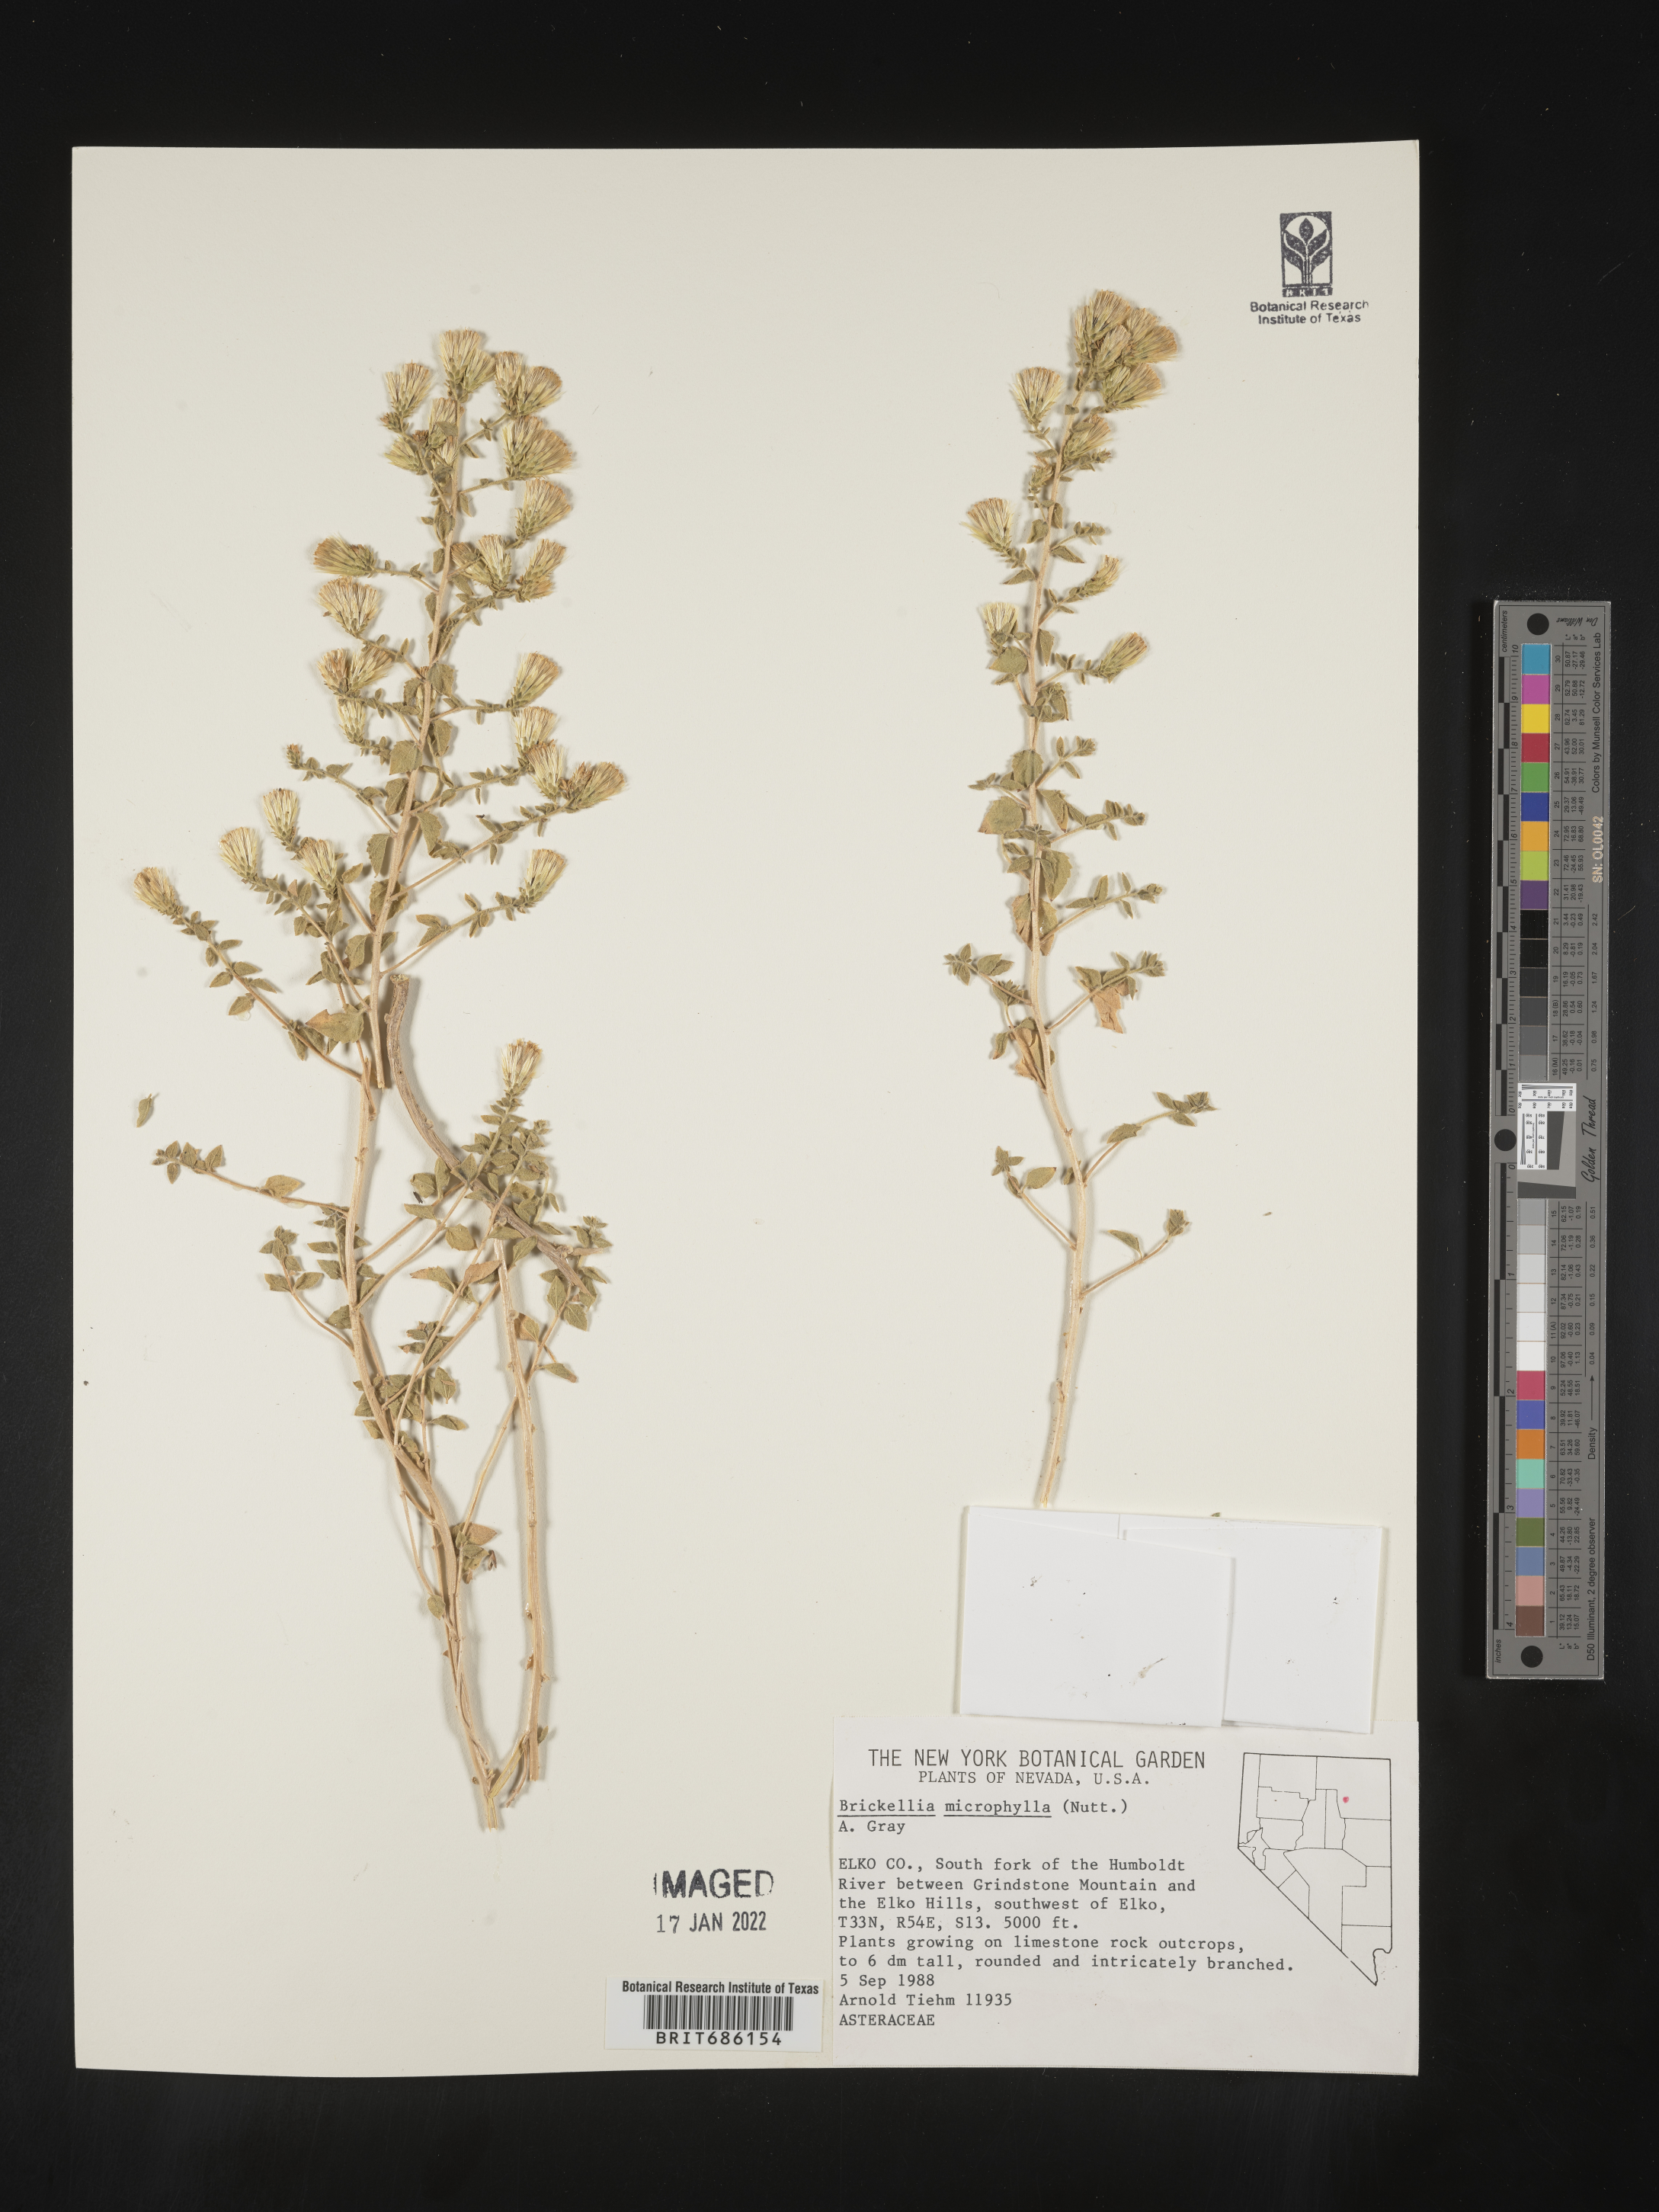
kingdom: Plantae
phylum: Tracheophyta
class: Magnoliopsida
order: Asterales
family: Asteraceae
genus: Brickellia
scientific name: Brickellia microphylla
